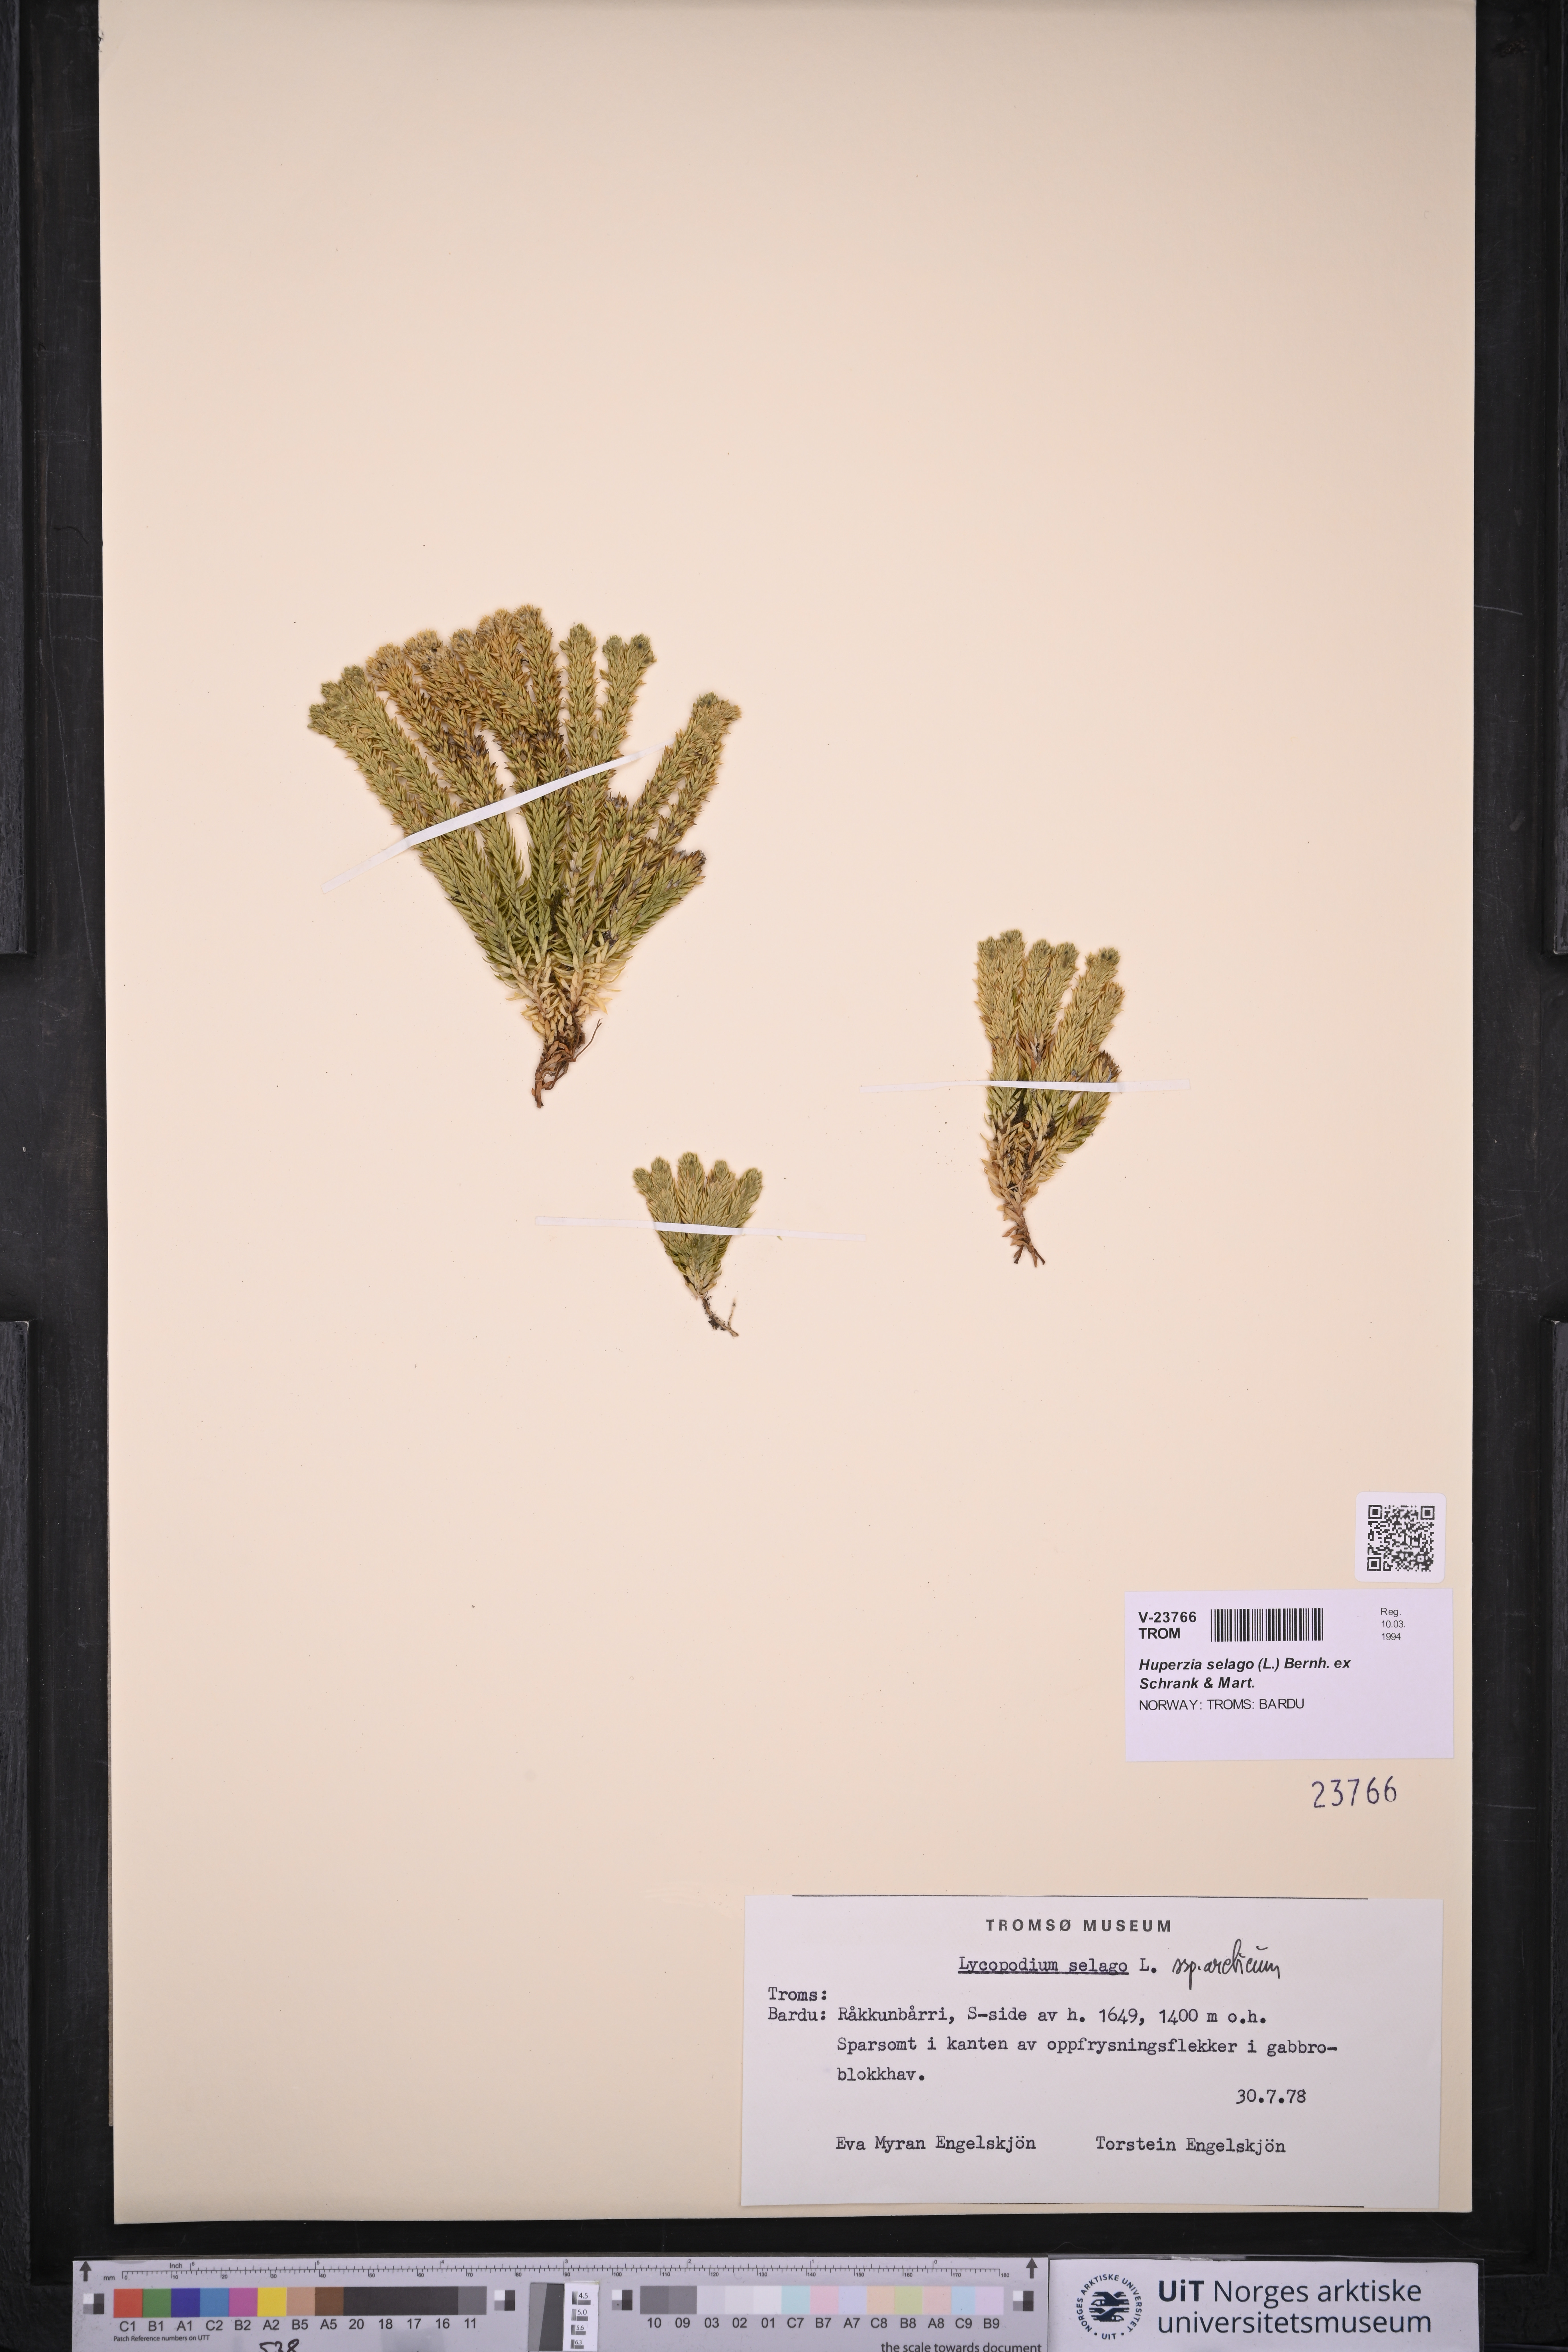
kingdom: Plantae
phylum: Tracheophyta
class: Lycopodiopsida
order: Lycopodiales
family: Lycopodiaceae
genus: Huperzia
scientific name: Huperzia selago
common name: Northern firmoss
